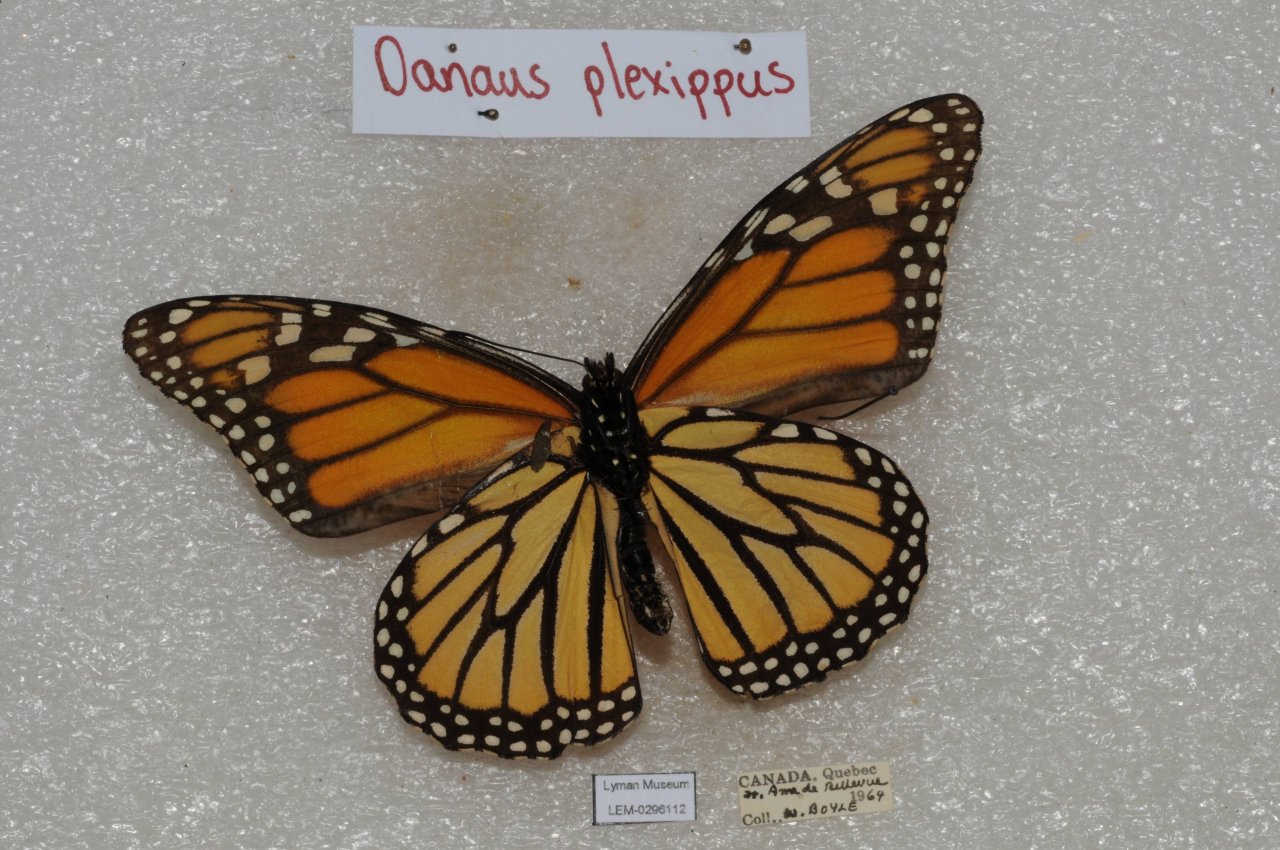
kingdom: Animalia
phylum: Arthropoda
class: Insecta
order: Lepidoptera
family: Nymphalidae
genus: Danaus
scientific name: Danaus plexippus
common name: Monarch
